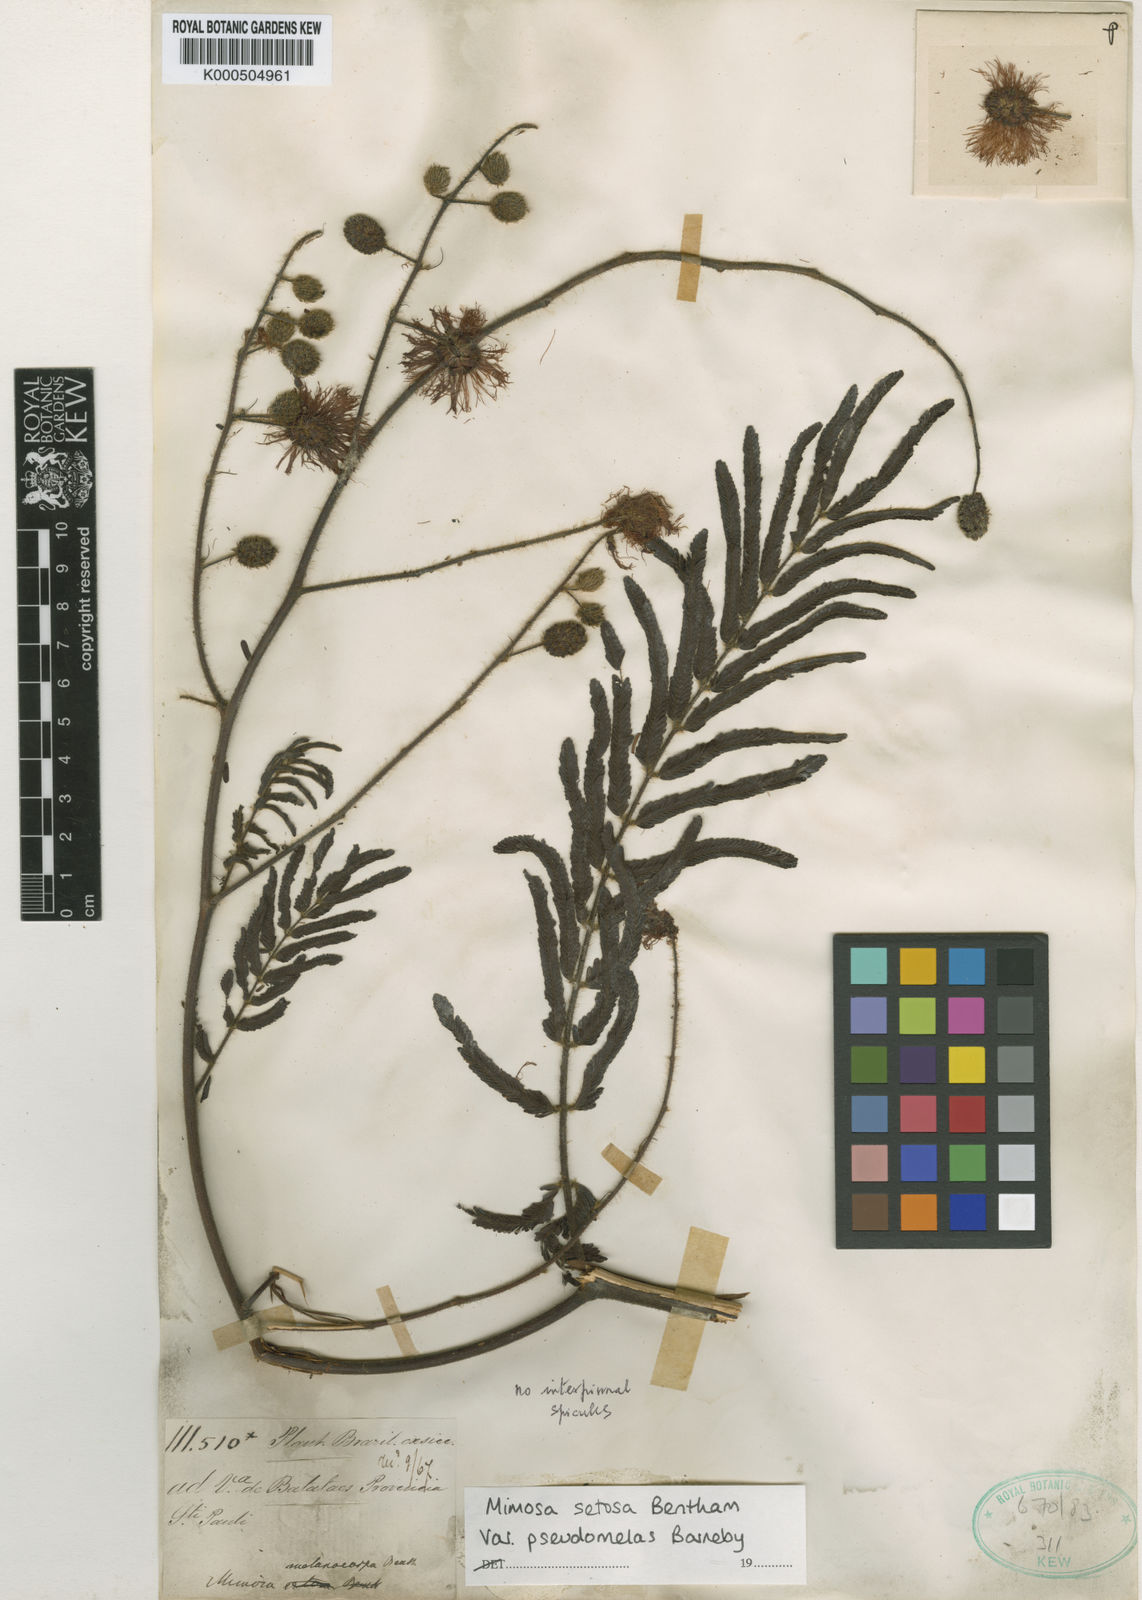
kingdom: Plantae
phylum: Tracheophyta
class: Magnoliopsida
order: Fabales
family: Fabaceae
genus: Mimosa
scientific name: Mimosa setosa
